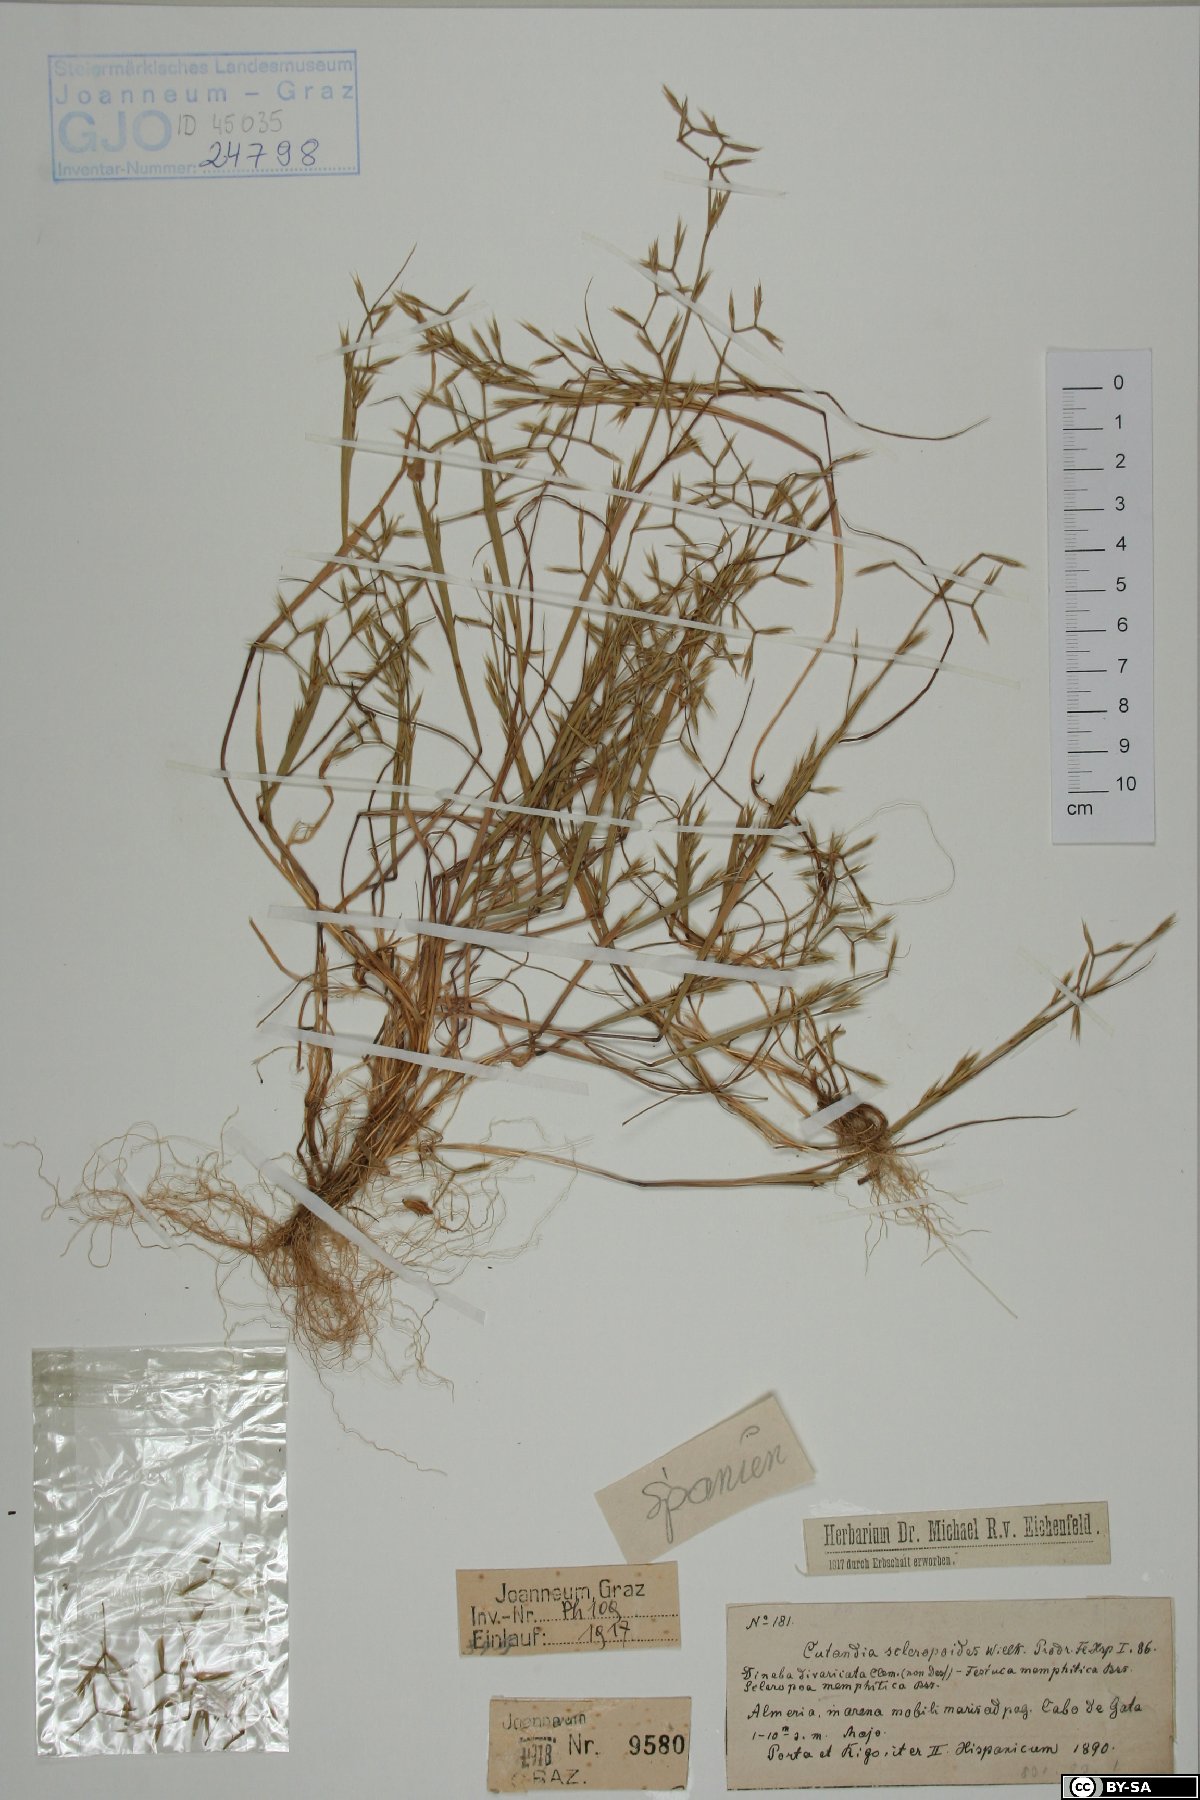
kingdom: Plantae
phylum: Tracheophyta
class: Liliopsida
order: Poales
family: Poaceae
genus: Cutandia
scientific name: Cutandia memphitica
